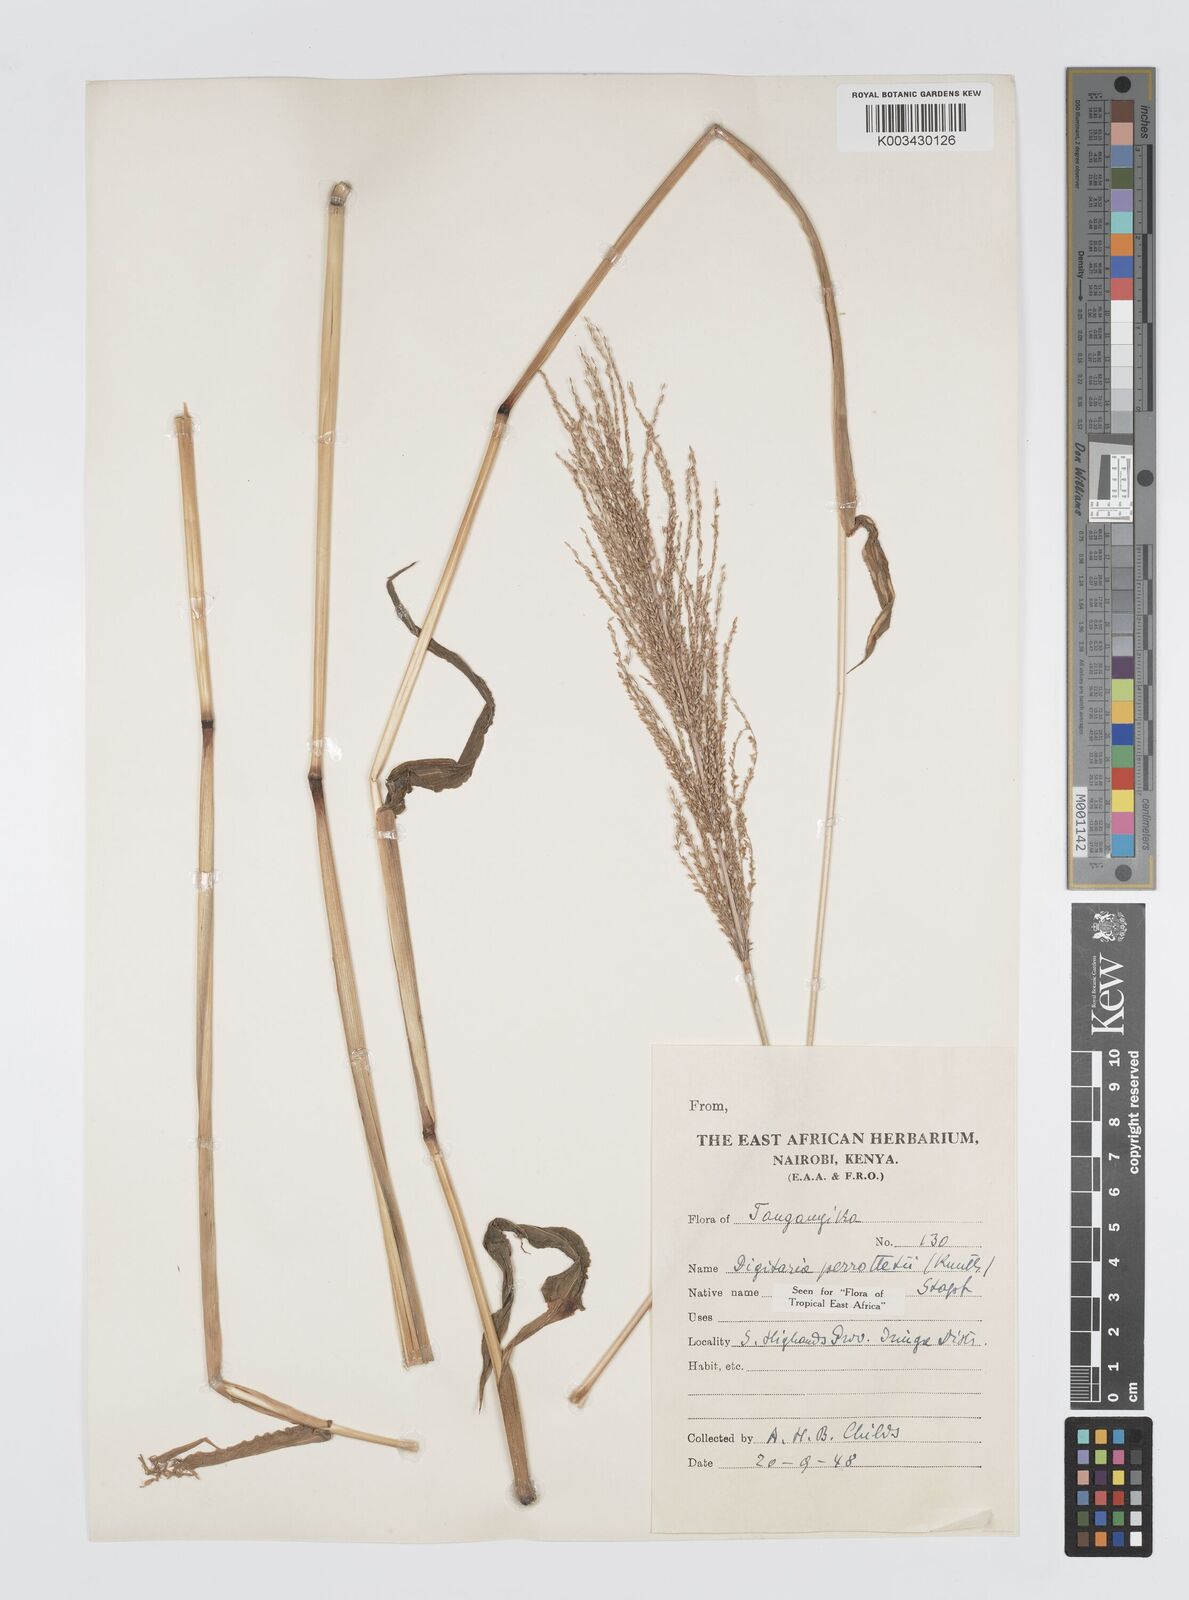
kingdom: Plantae
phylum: Tracheophyta
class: Liliopsida
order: Poales
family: Poaceae
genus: Digitaria
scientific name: Digitaria perrottetii
